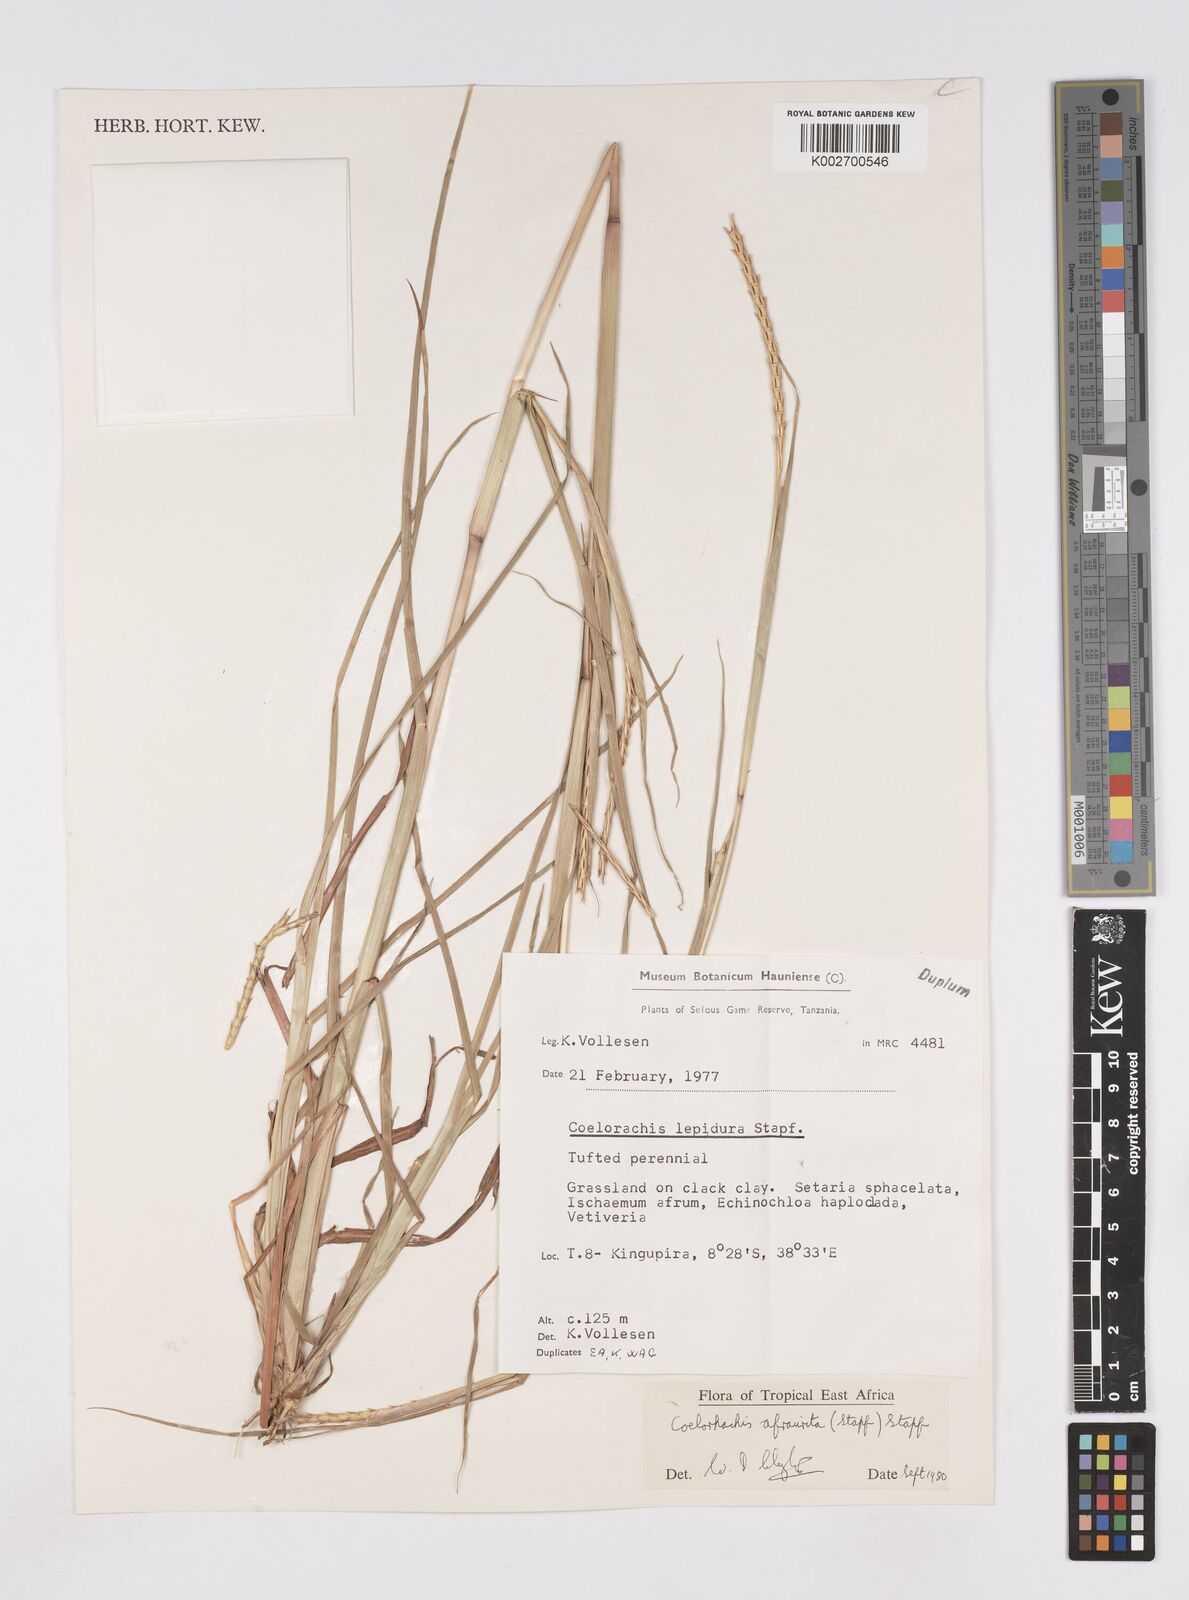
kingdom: Plantae
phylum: Tracheophyta
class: Liliopsida
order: Poales
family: Poaceae
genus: Rottboellia
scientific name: Rottboellia afraurita
